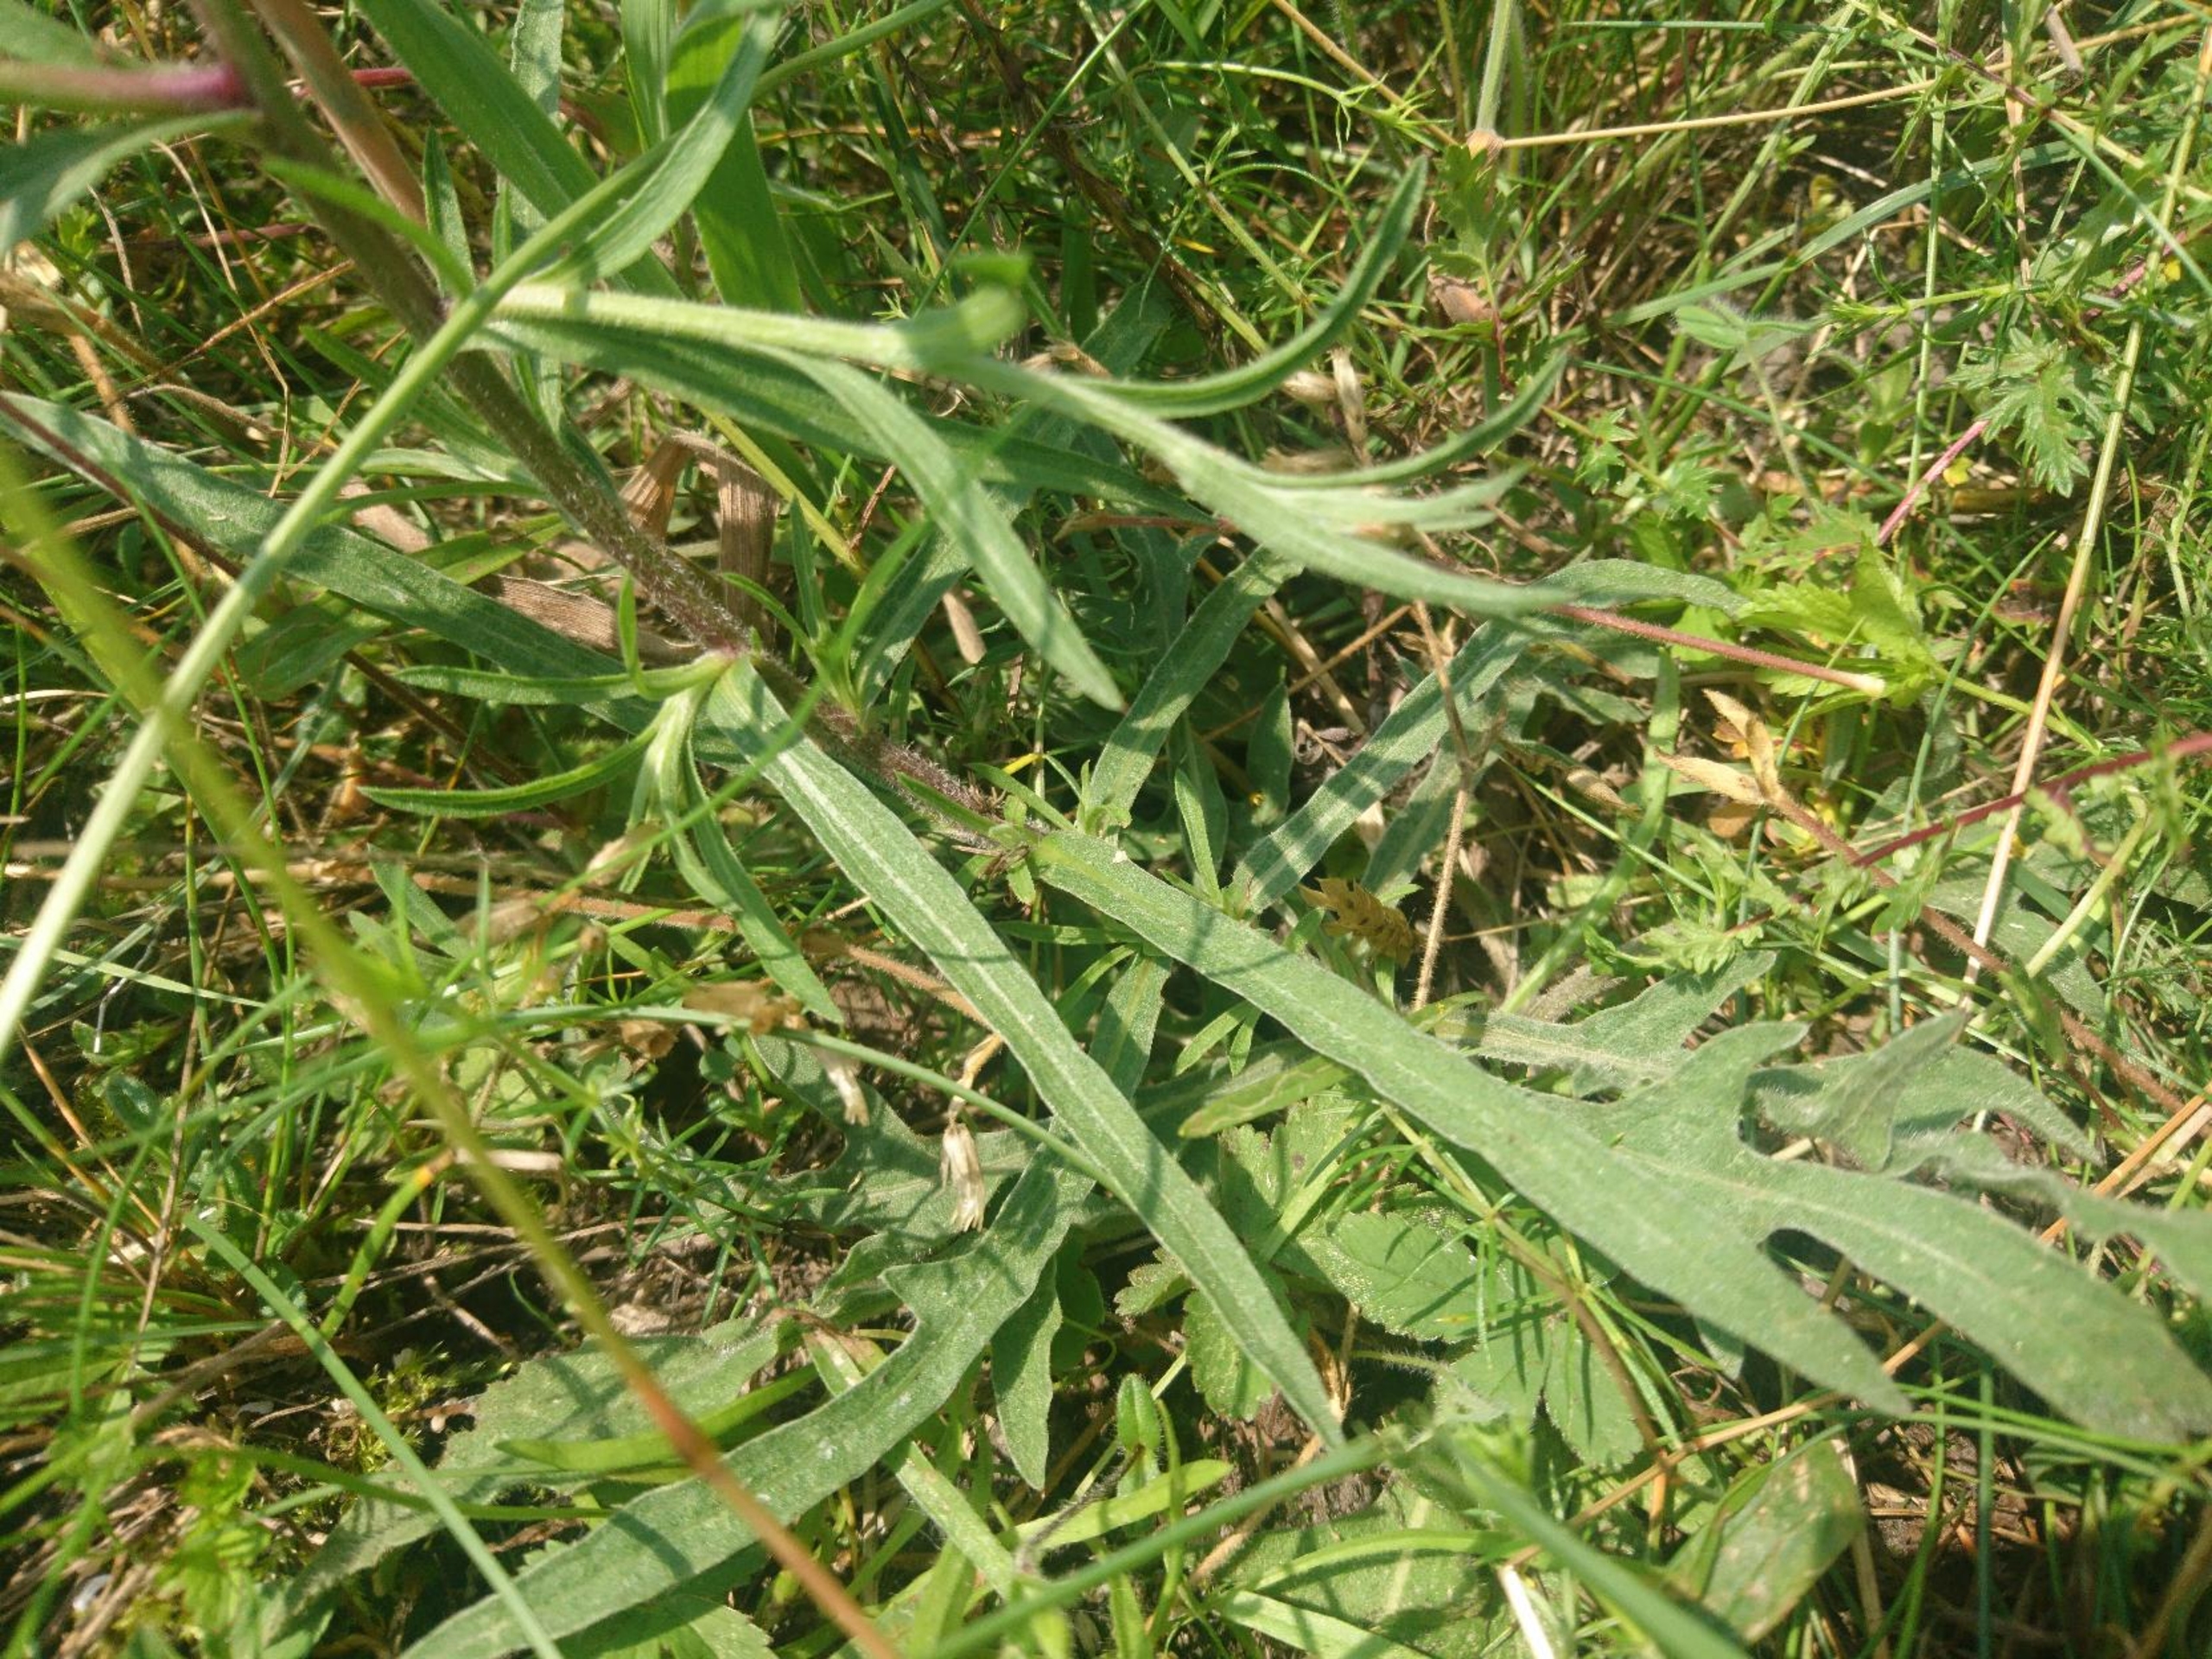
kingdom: Plantae
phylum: Tracheophyta
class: Magnoliopsida
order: Asterales
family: Asteraceae
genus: Centaurea
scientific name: Centaurea jacea
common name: Almindelig knopurt
